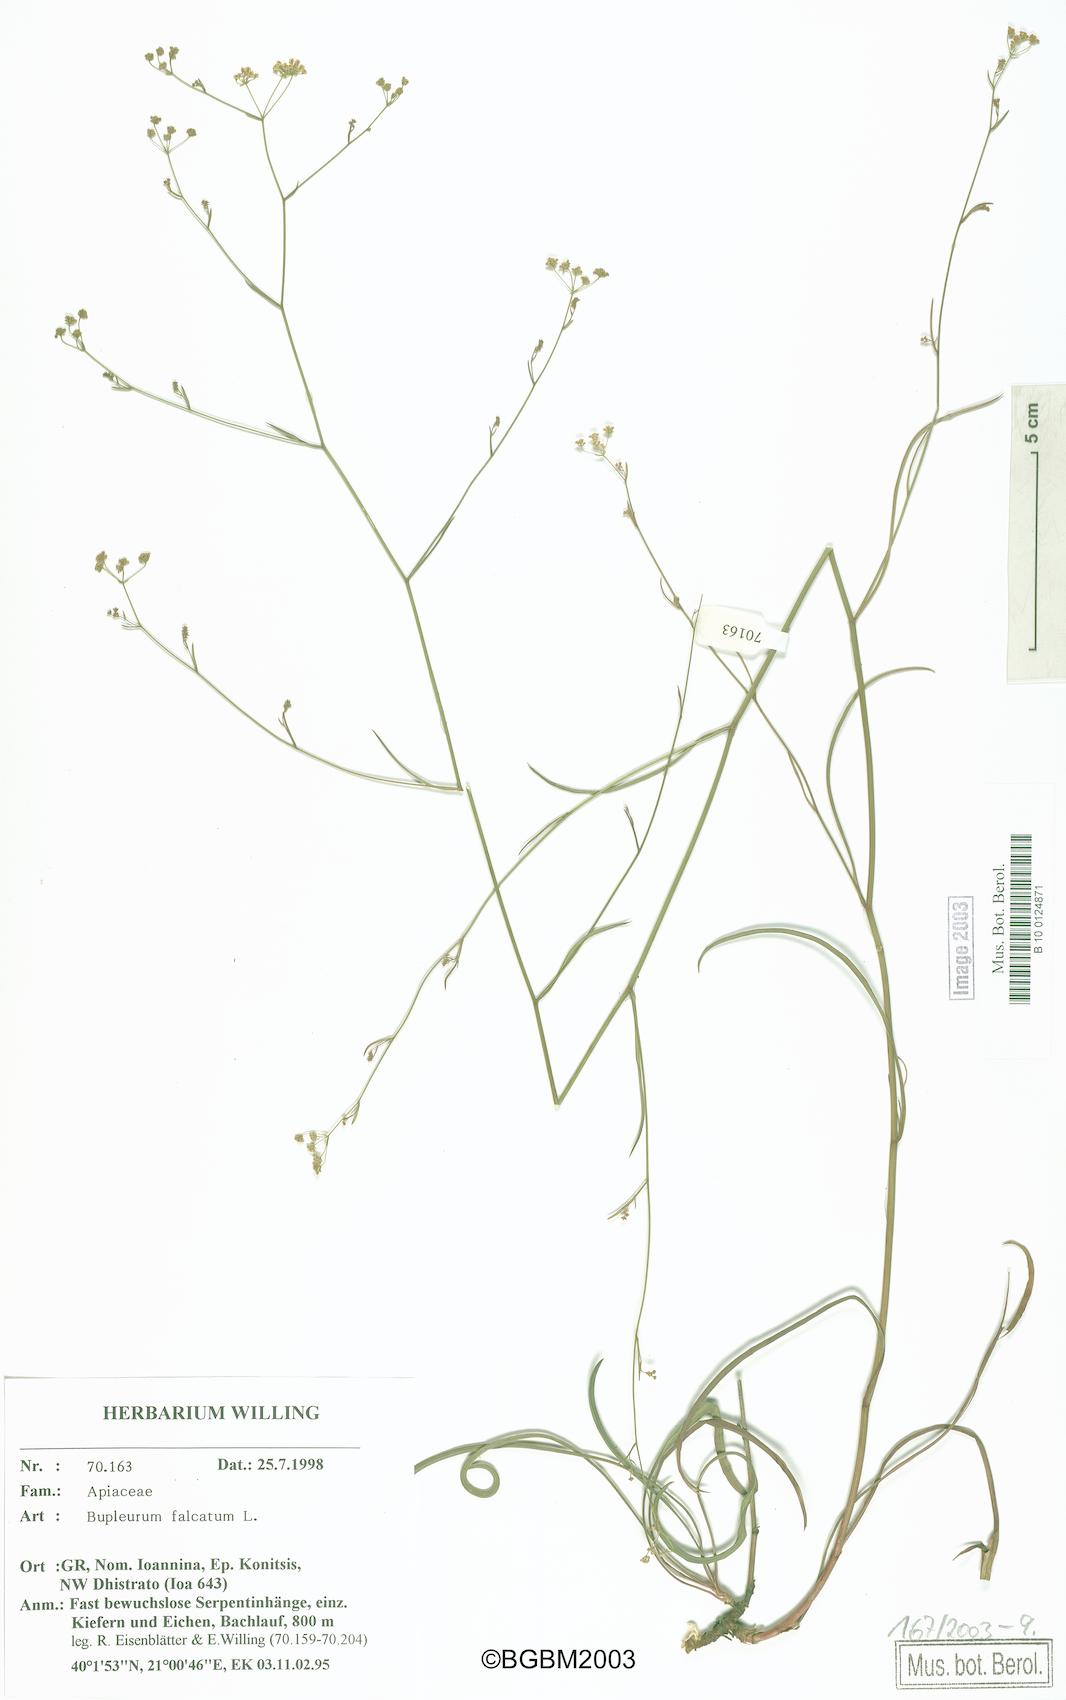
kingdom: Plantae
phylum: Tracheophyta
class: Magnoliopsida
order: Apiales
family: Apiaceae
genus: Bupleurum
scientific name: Bupleurum falcatum
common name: Sickle-leaved hare's-ear
